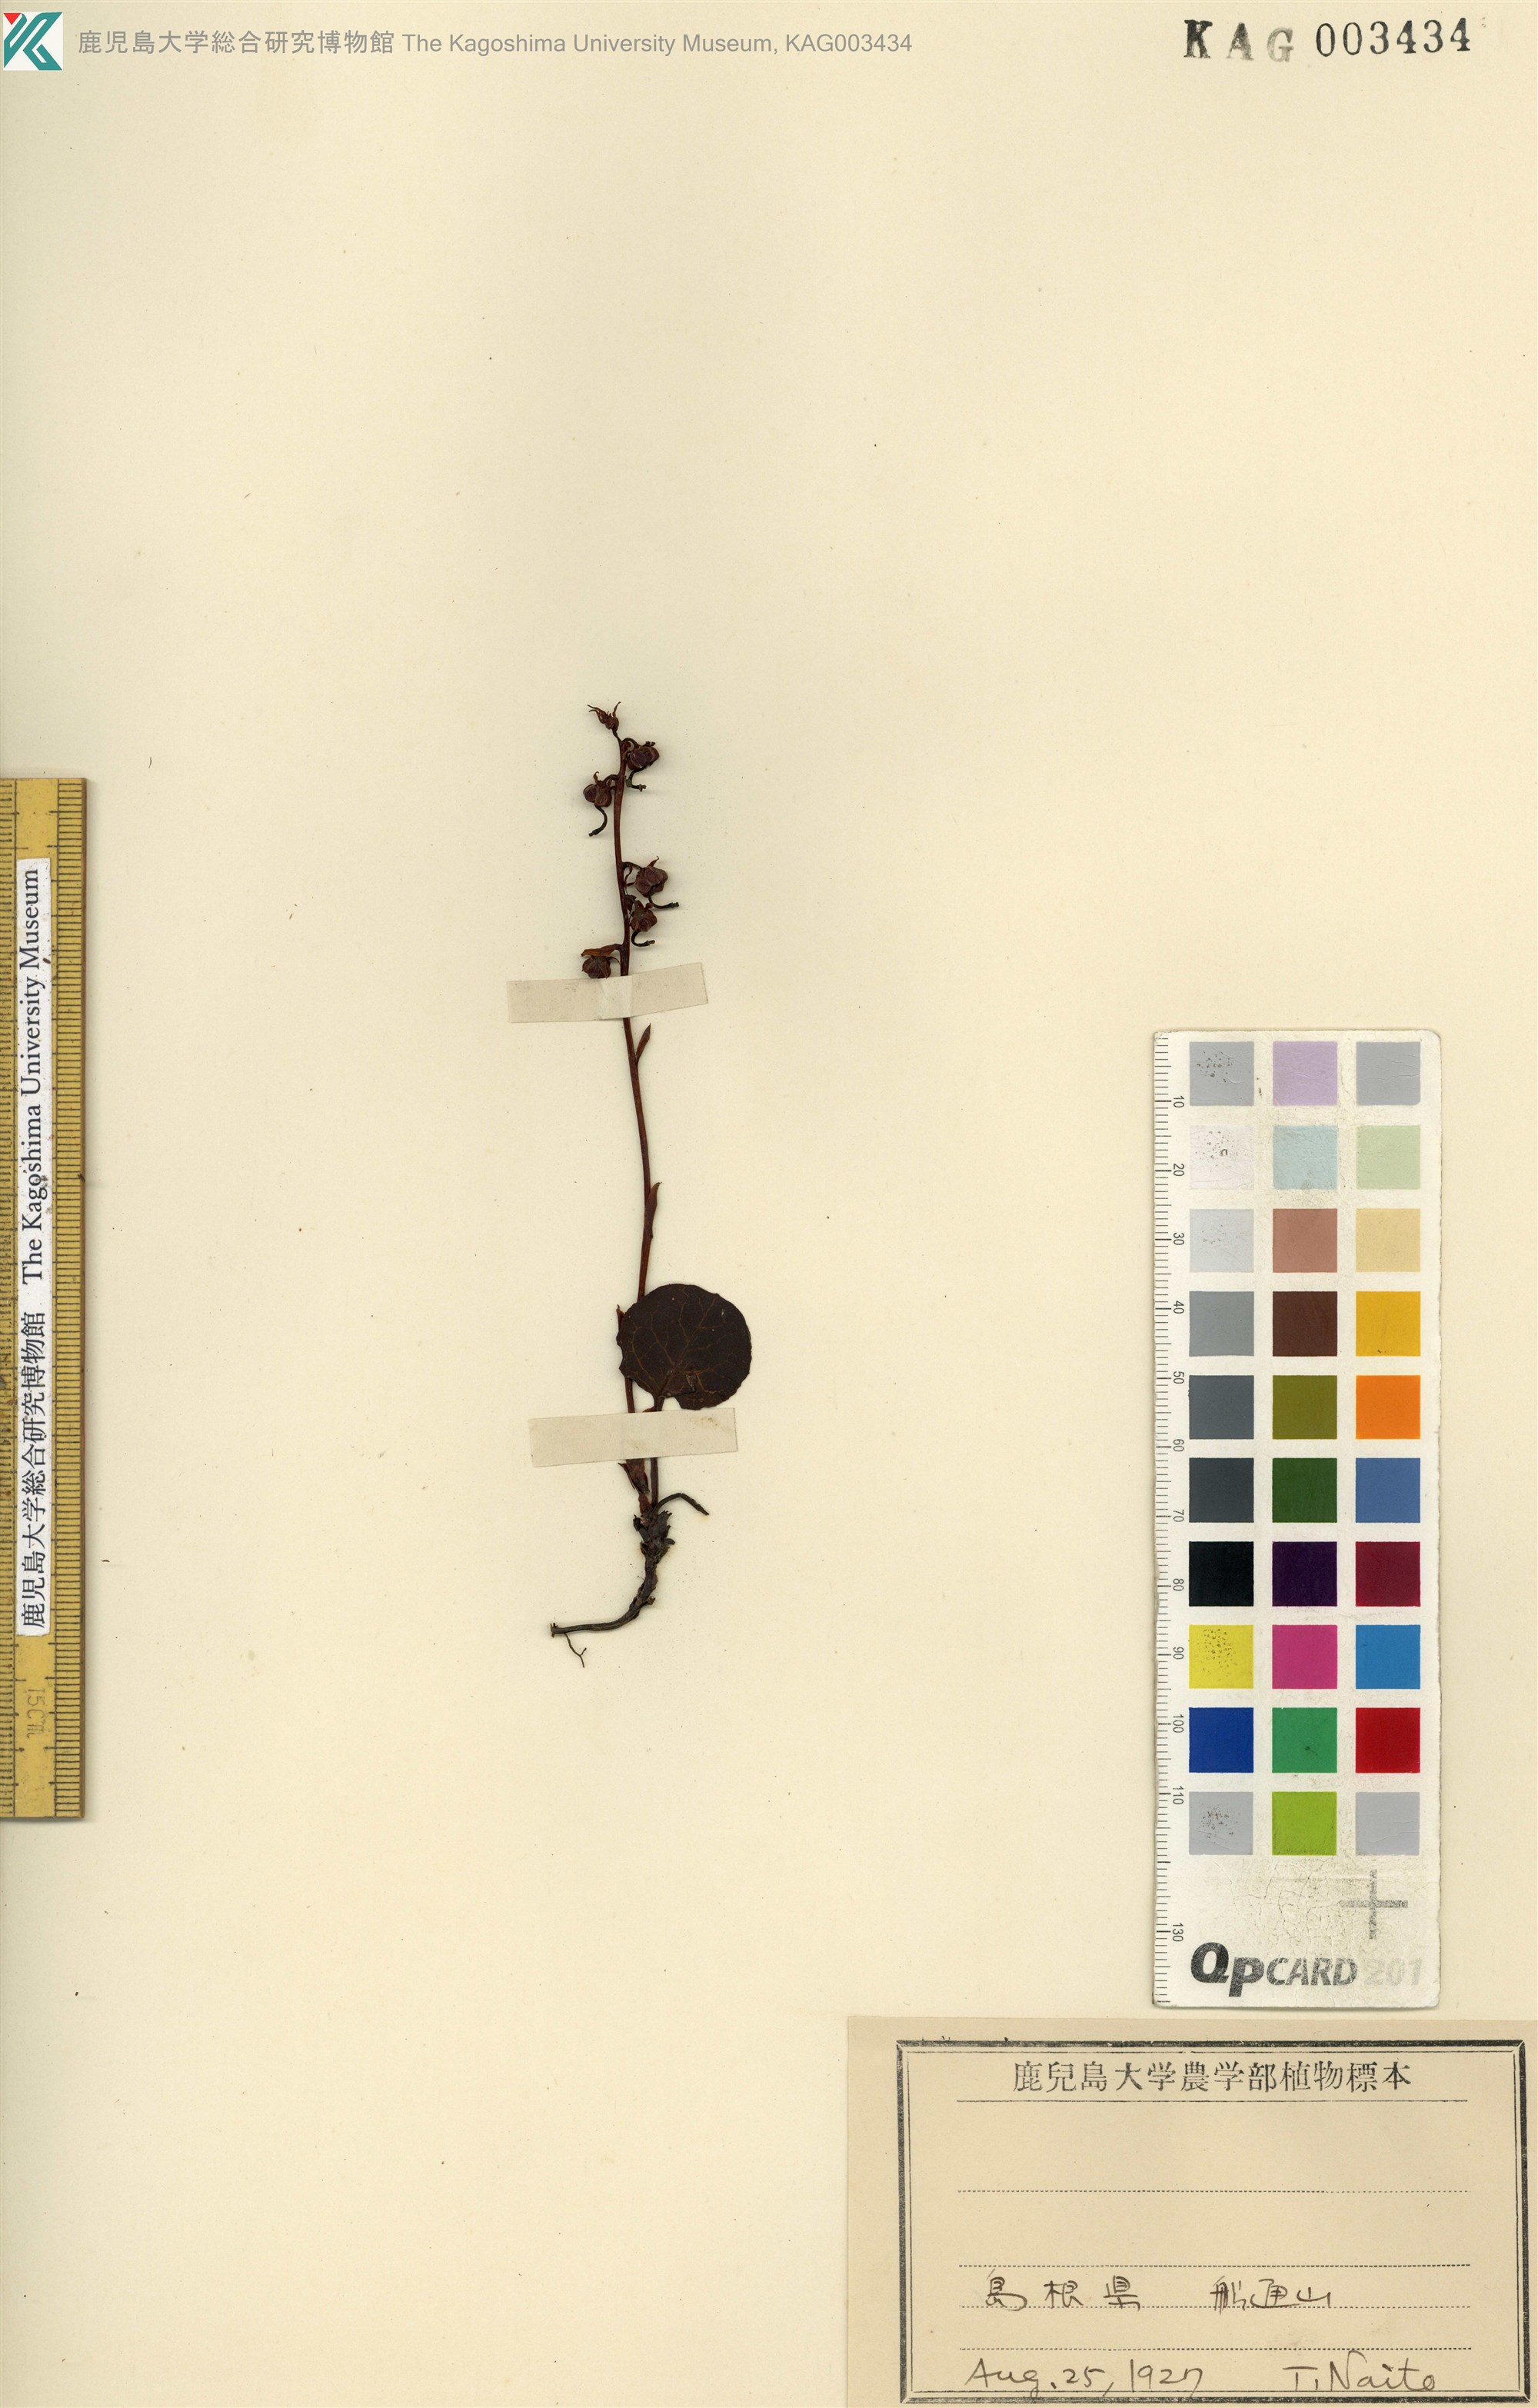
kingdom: Plantae
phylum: Tracheophyta
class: Magnoliopsida
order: Ericales
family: Ericaceae
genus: Pyrola
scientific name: Pyrola nephrophylla
